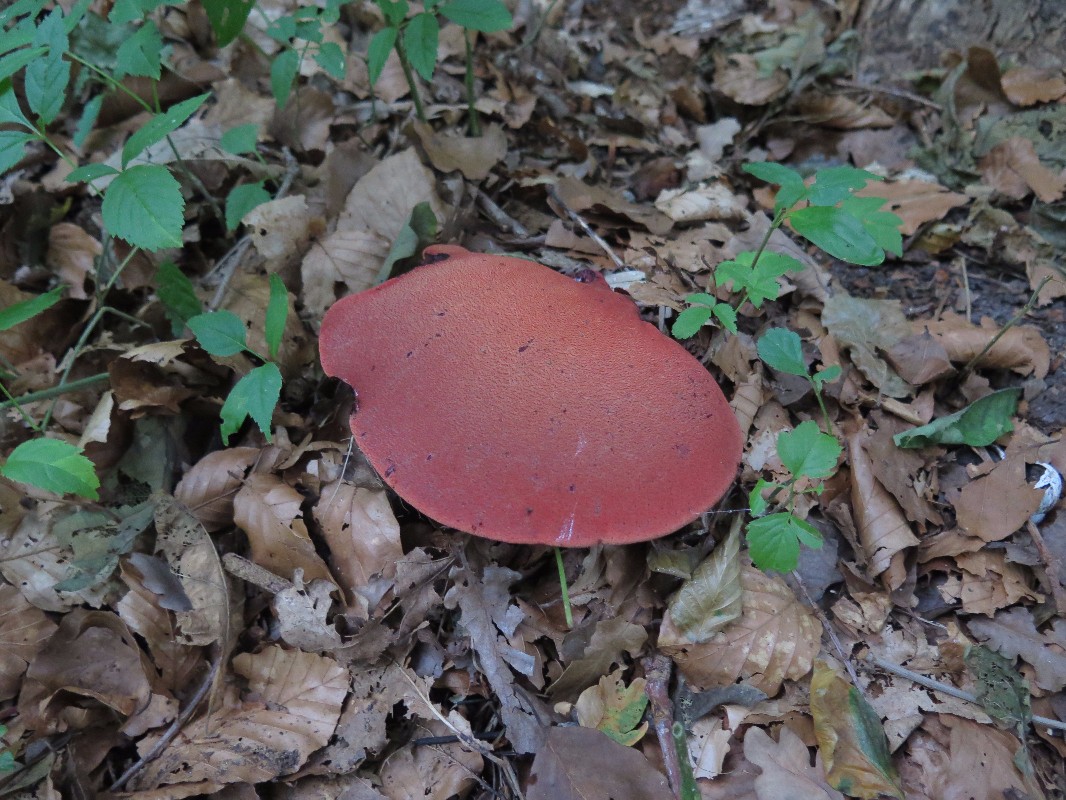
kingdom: Fungi
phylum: Basidiomycota
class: Agaricomycetes
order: Agaricales
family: Fistulinaceae
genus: Fistulina
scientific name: Fistulina hepatica
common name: oksetunge
